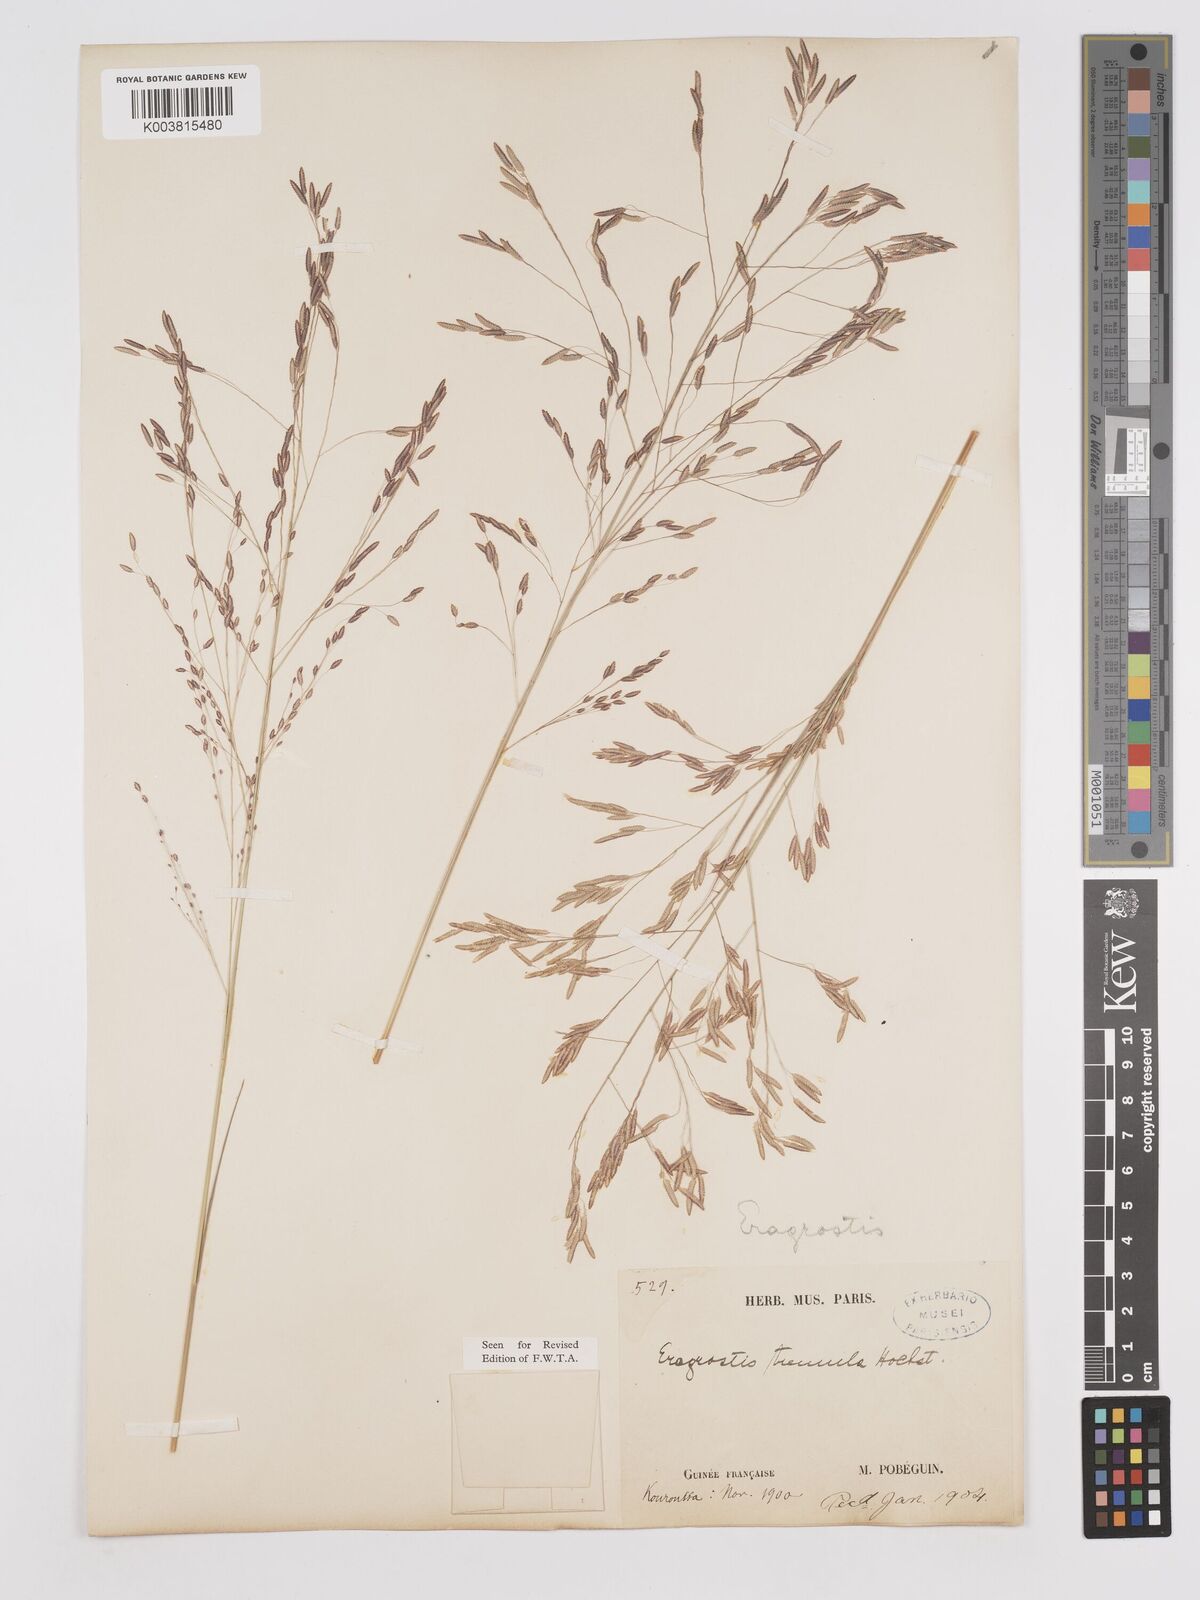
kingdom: Plantae
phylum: Tracheophyta
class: Liliopsida
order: Poales
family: Poaceae
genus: Eragrostis
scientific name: Eragrostis tremula
